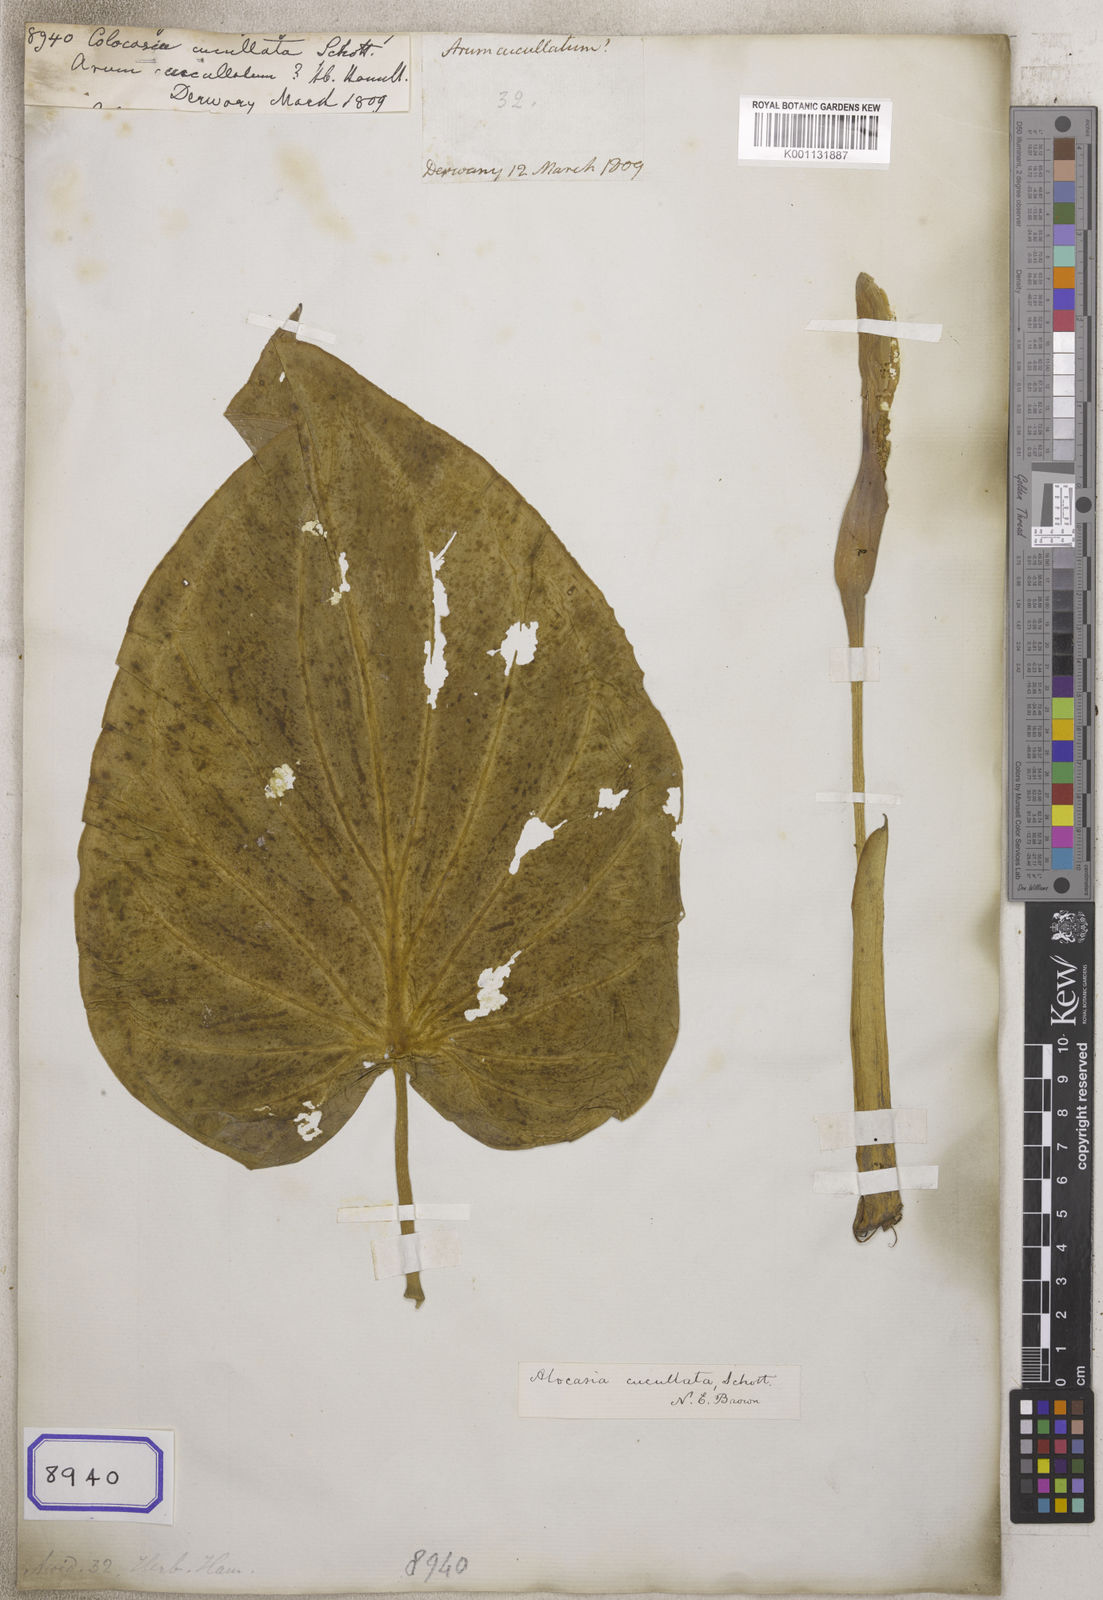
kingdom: Plantae
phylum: Tracheophyta
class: Liliopsida
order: Alismatales
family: Araceae
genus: Alocasia
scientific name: Alocasia cucullata
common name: Buddha's hand
